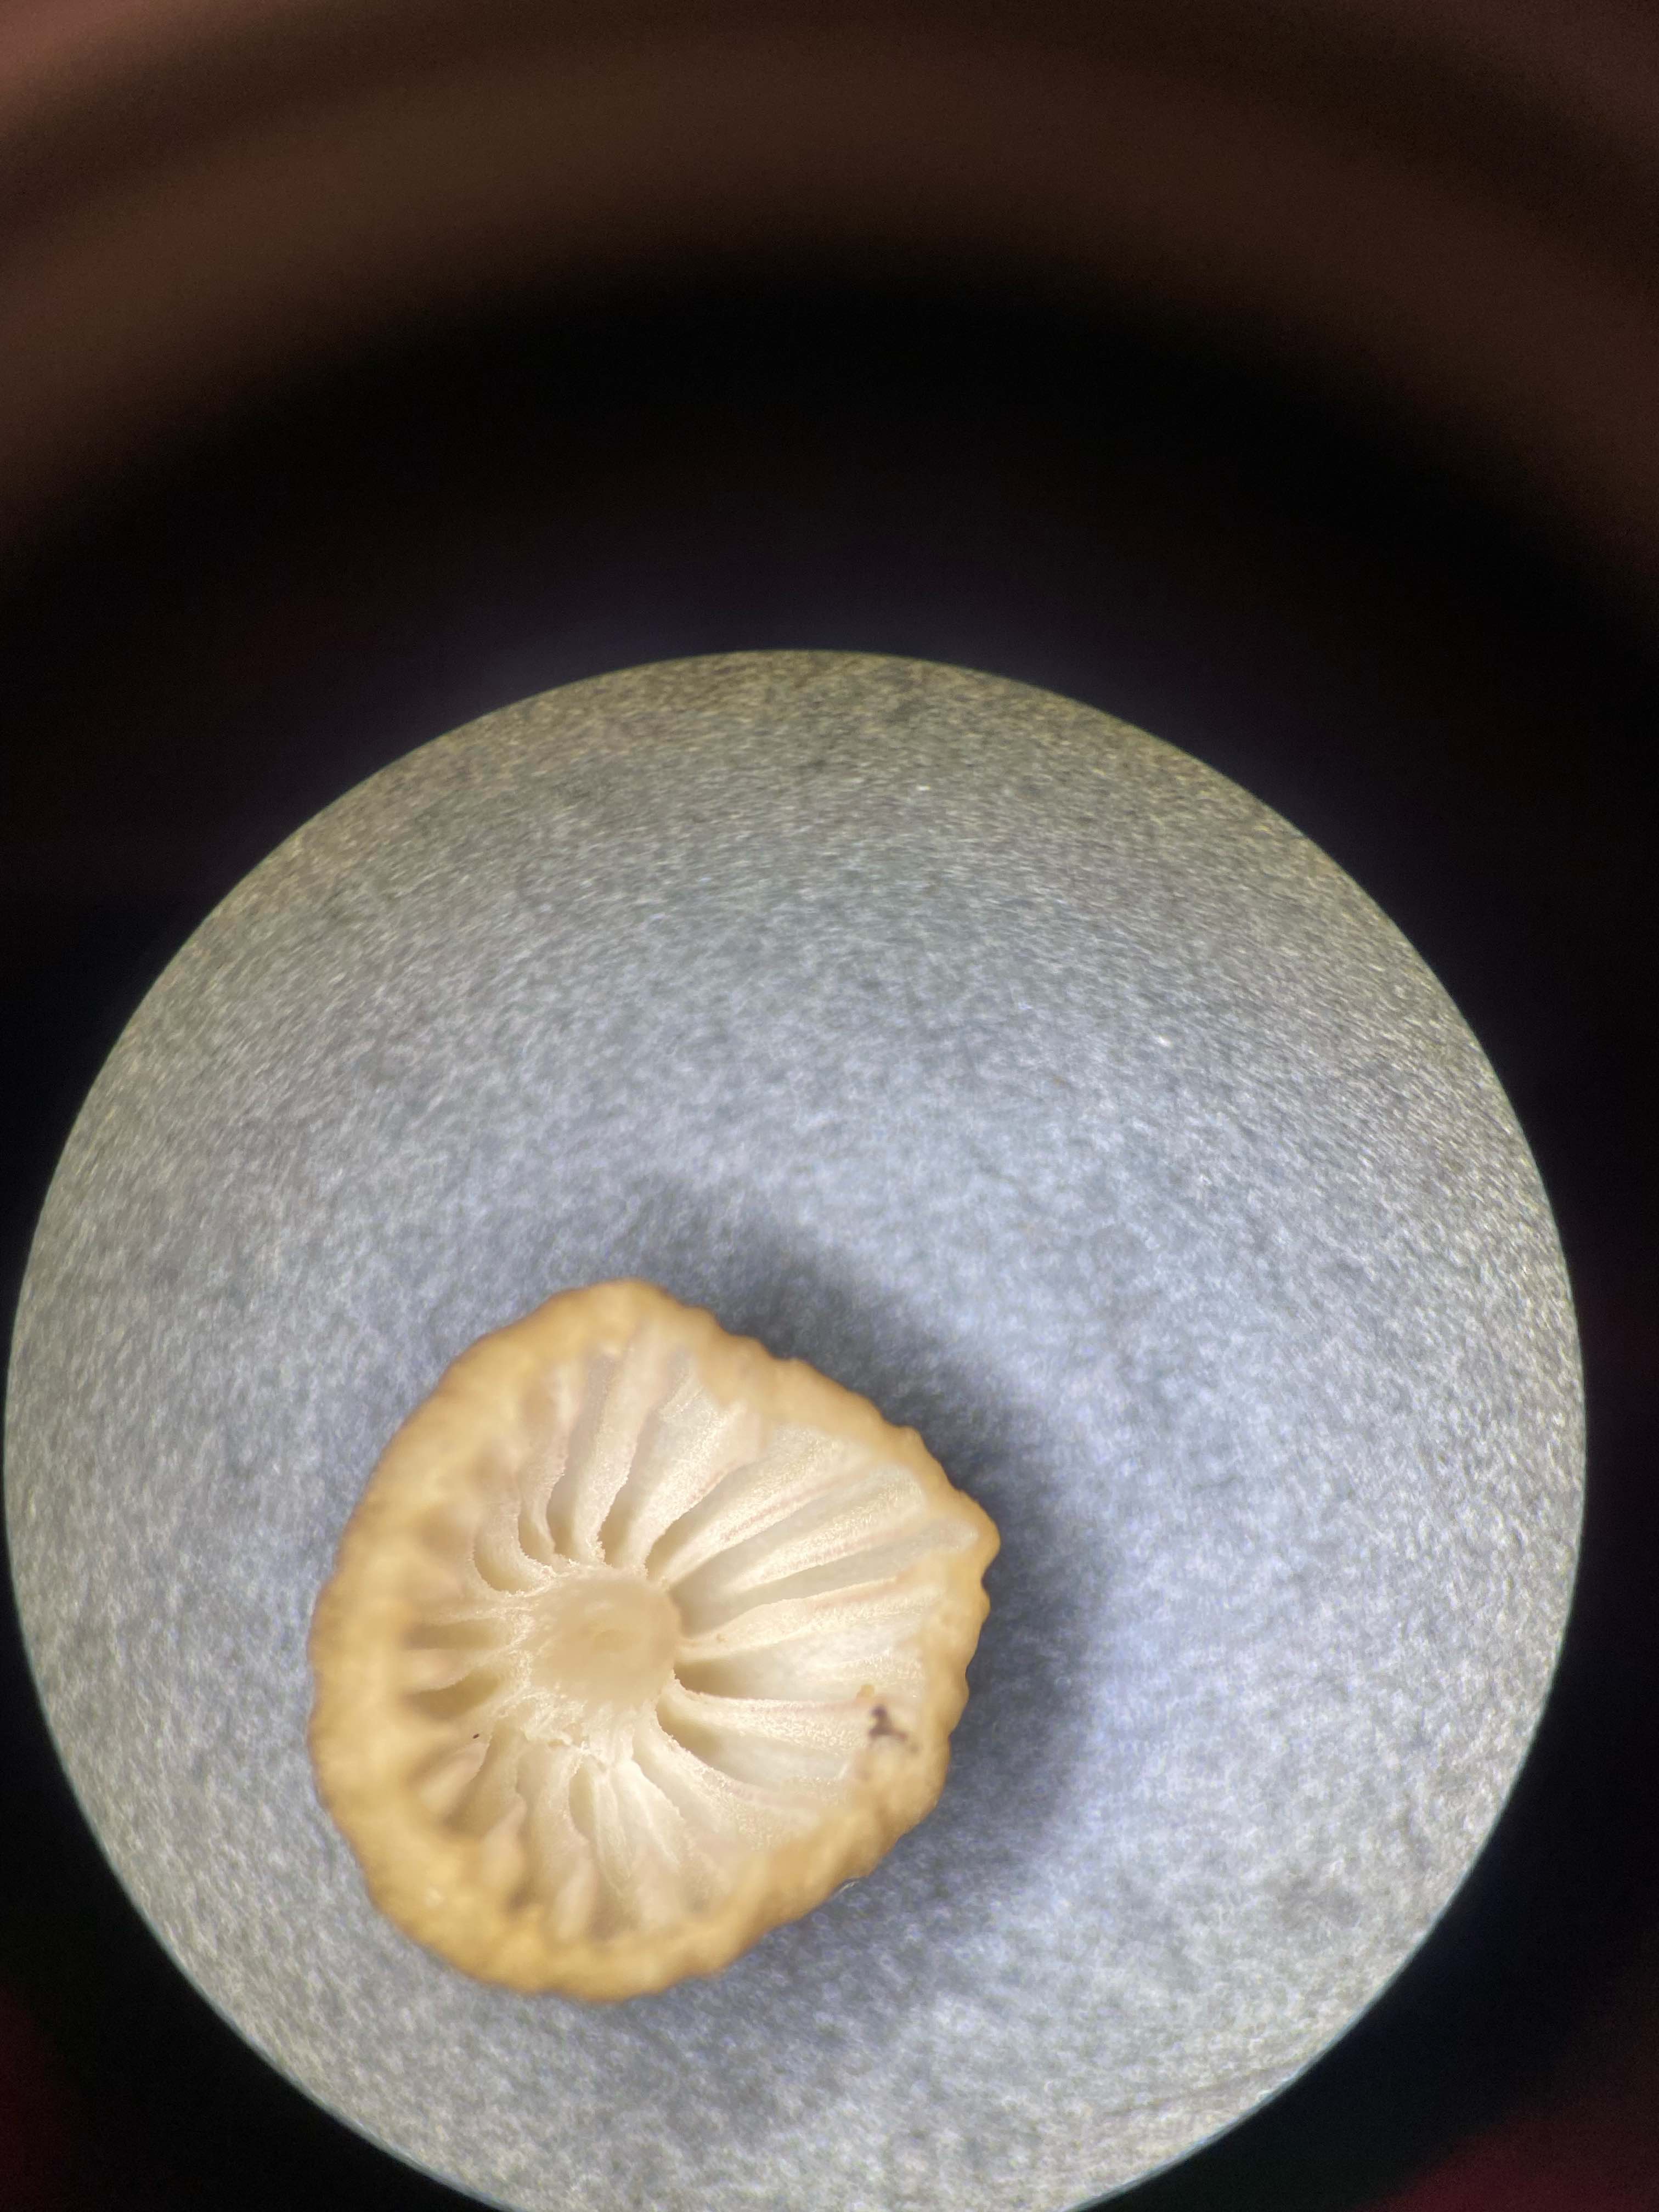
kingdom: Fungi
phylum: Basidiomycota
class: Agaricomycetes
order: Agaricales
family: Mycenaceae
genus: Mycena
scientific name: Mycena olivaceomarginata
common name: brunægget huesvamp
